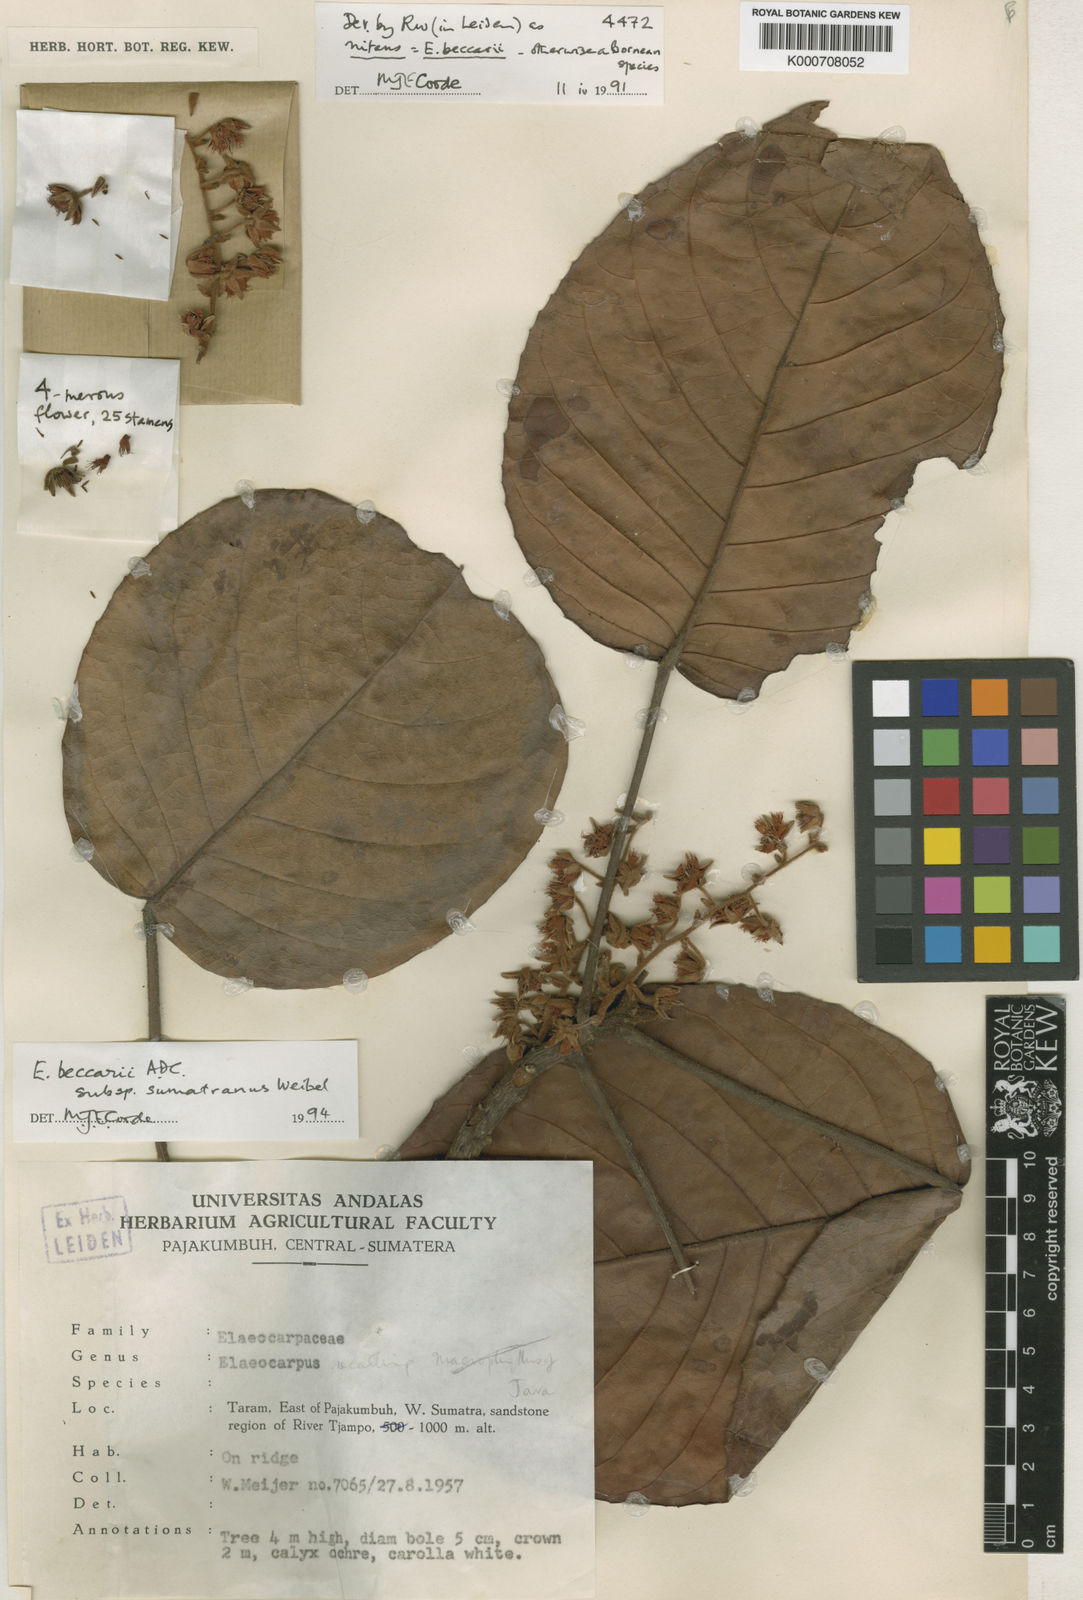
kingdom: Plantae
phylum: Tracheophyta
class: Magnoliopsida
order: Oxalidales
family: Elaeocarpaceae
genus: Elaeocarpus
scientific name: Elaeocarpus beccarii
